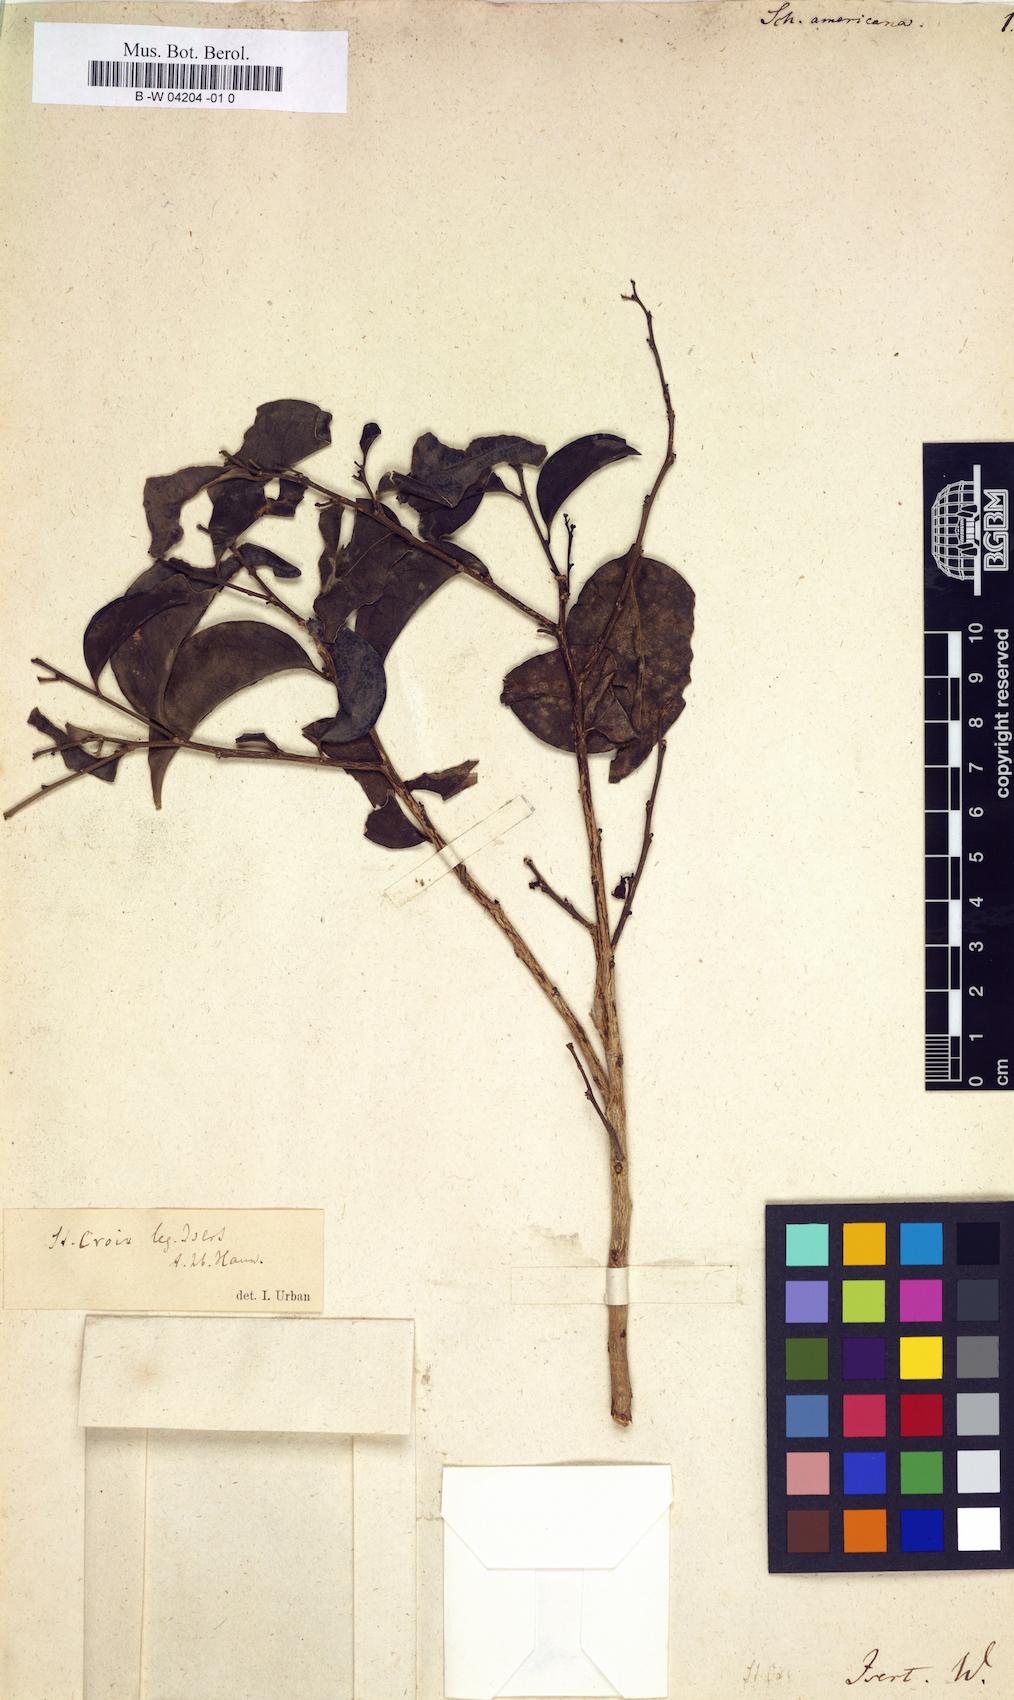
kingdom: Plantae
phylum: Tracheophyta
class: Magnoliopsida
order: Santalales
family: Schoepfiaceae
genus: Schoepfia
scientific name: Schoepfia schreberi
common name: Gulf graytwig
